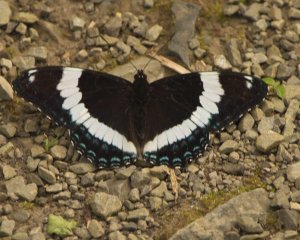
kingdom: Animalia
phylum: Arthropoda
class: Insecta
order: Lepidoptera
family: Nymphalidae
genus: Limenitis
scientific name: Limenitis arthemis
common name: Red-spotted Admiral
